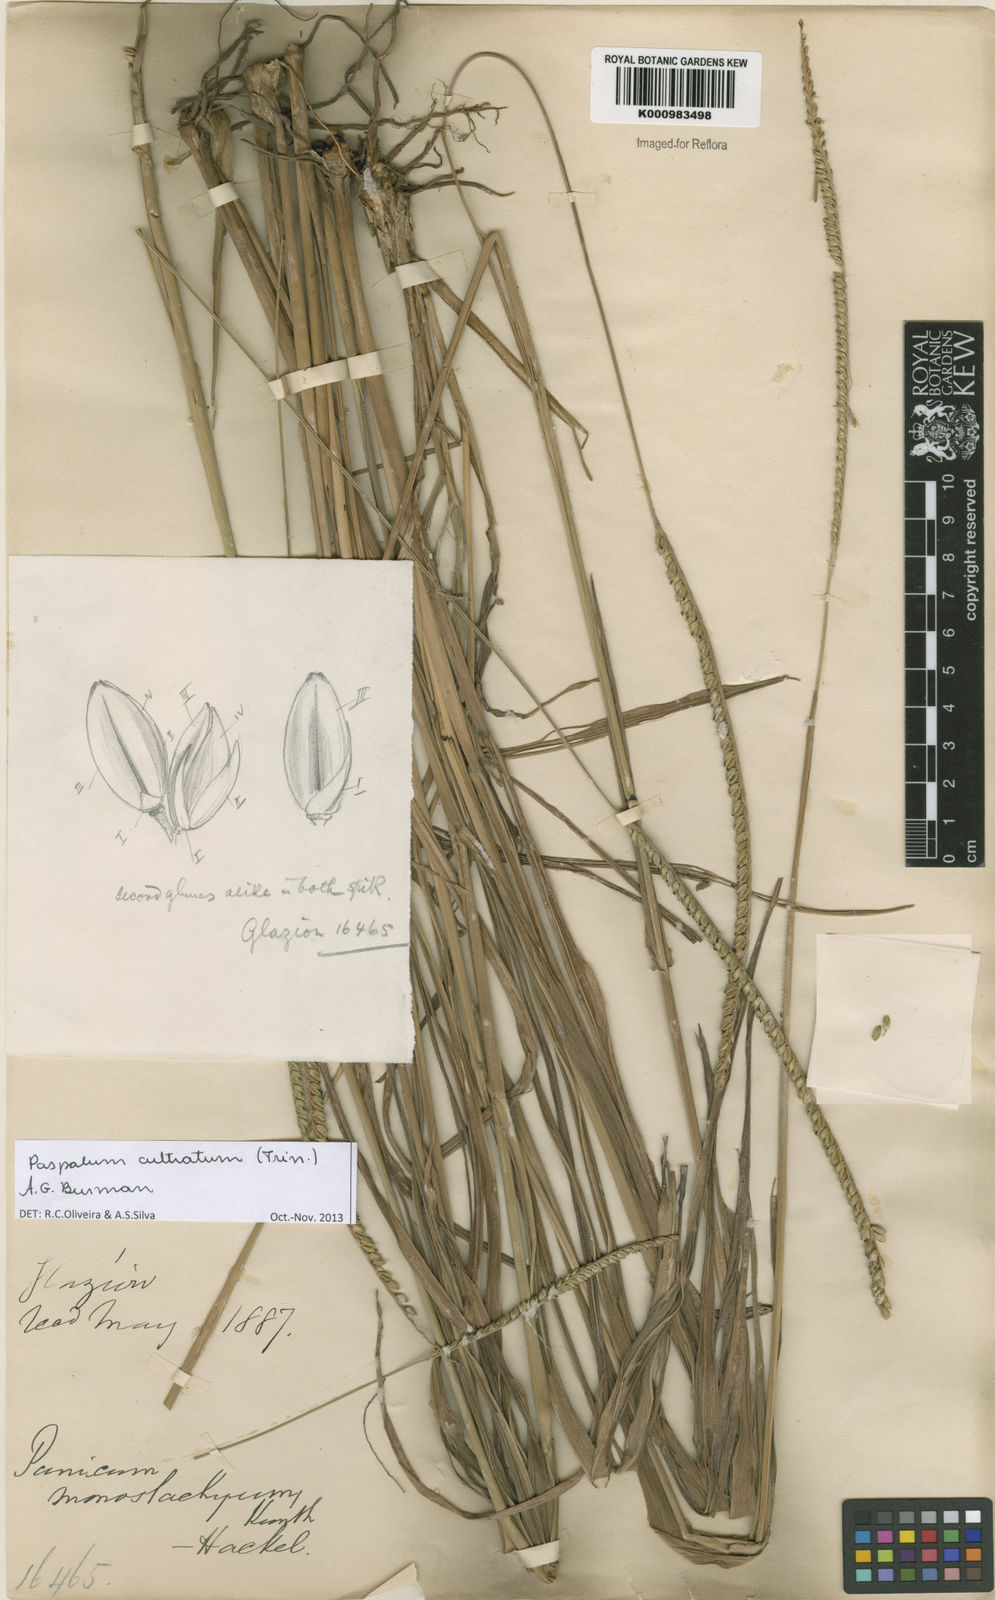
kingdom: Plantae
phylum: Tracheophyta
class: Liliopsida
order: Poales
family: Poaceae
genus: Paspalum
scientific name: Paspalum
